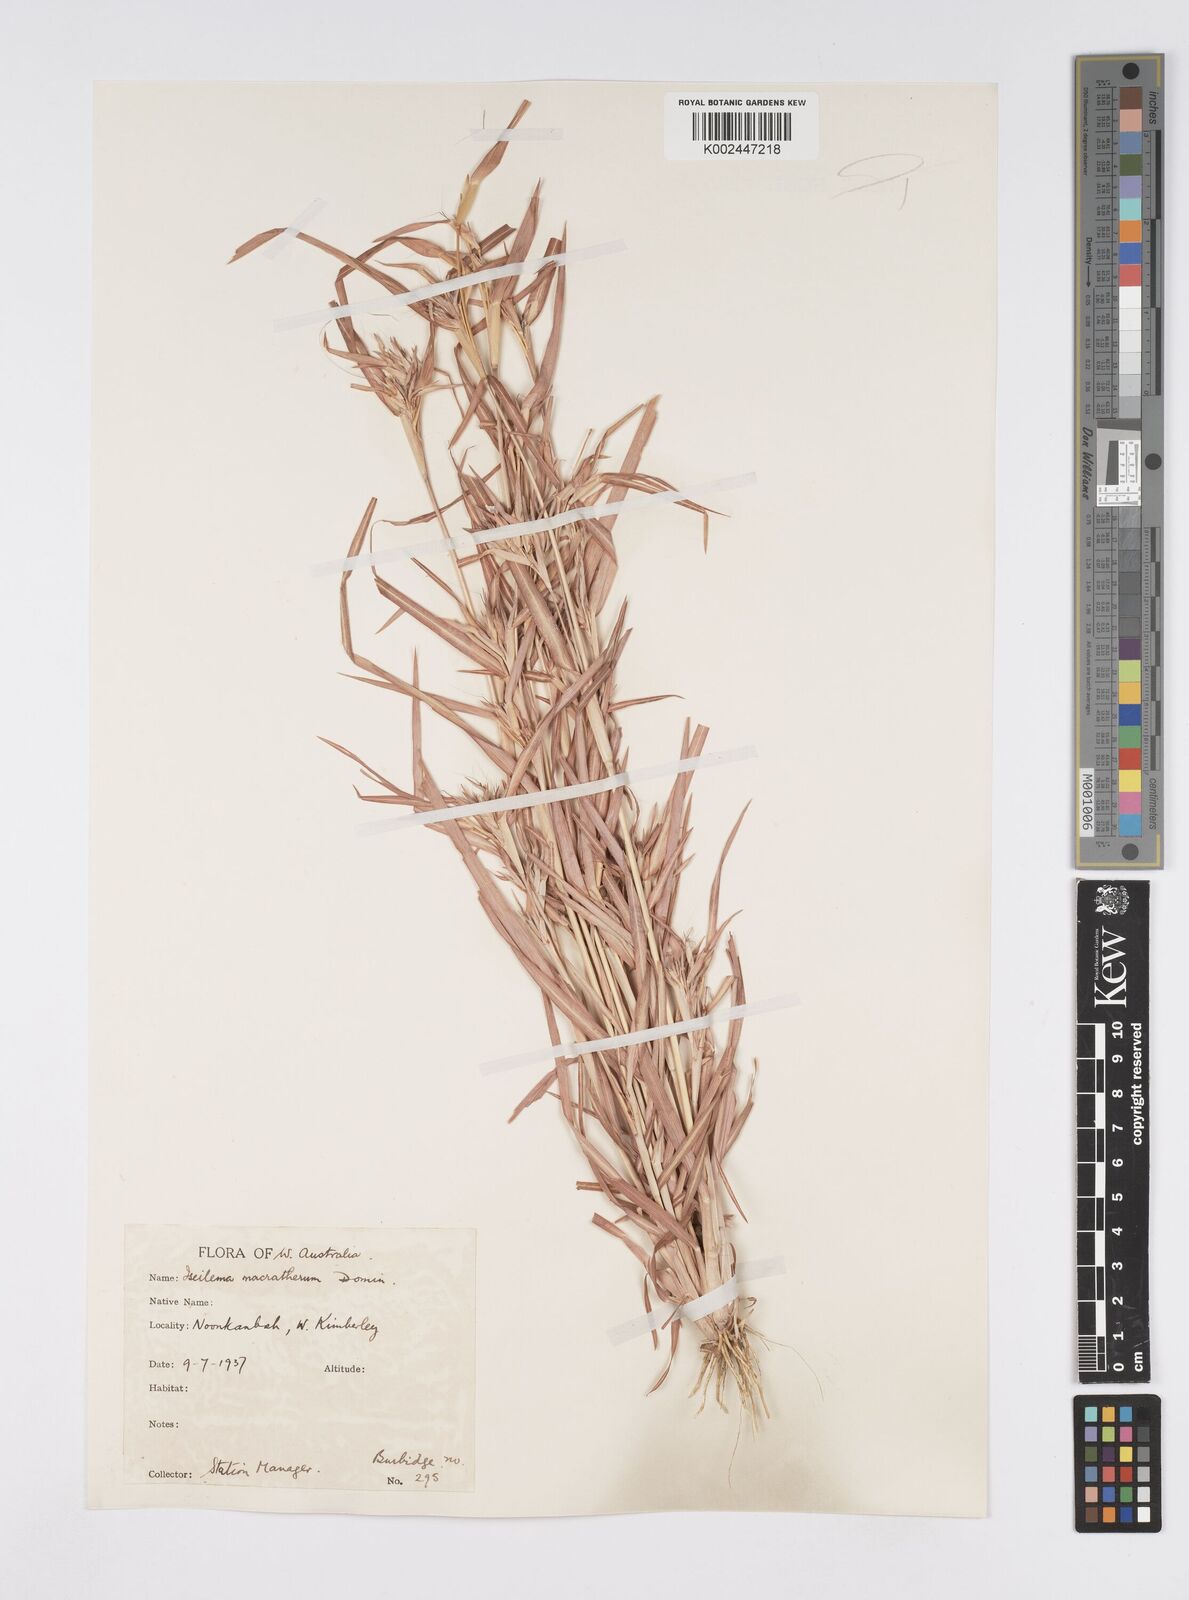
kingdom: Plantae
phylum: Tracheophyta
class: Liliopsida
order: Poales
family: Poaceae
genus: Iseilema
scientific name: Iseilema macratherum
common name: Bull flinders grass
